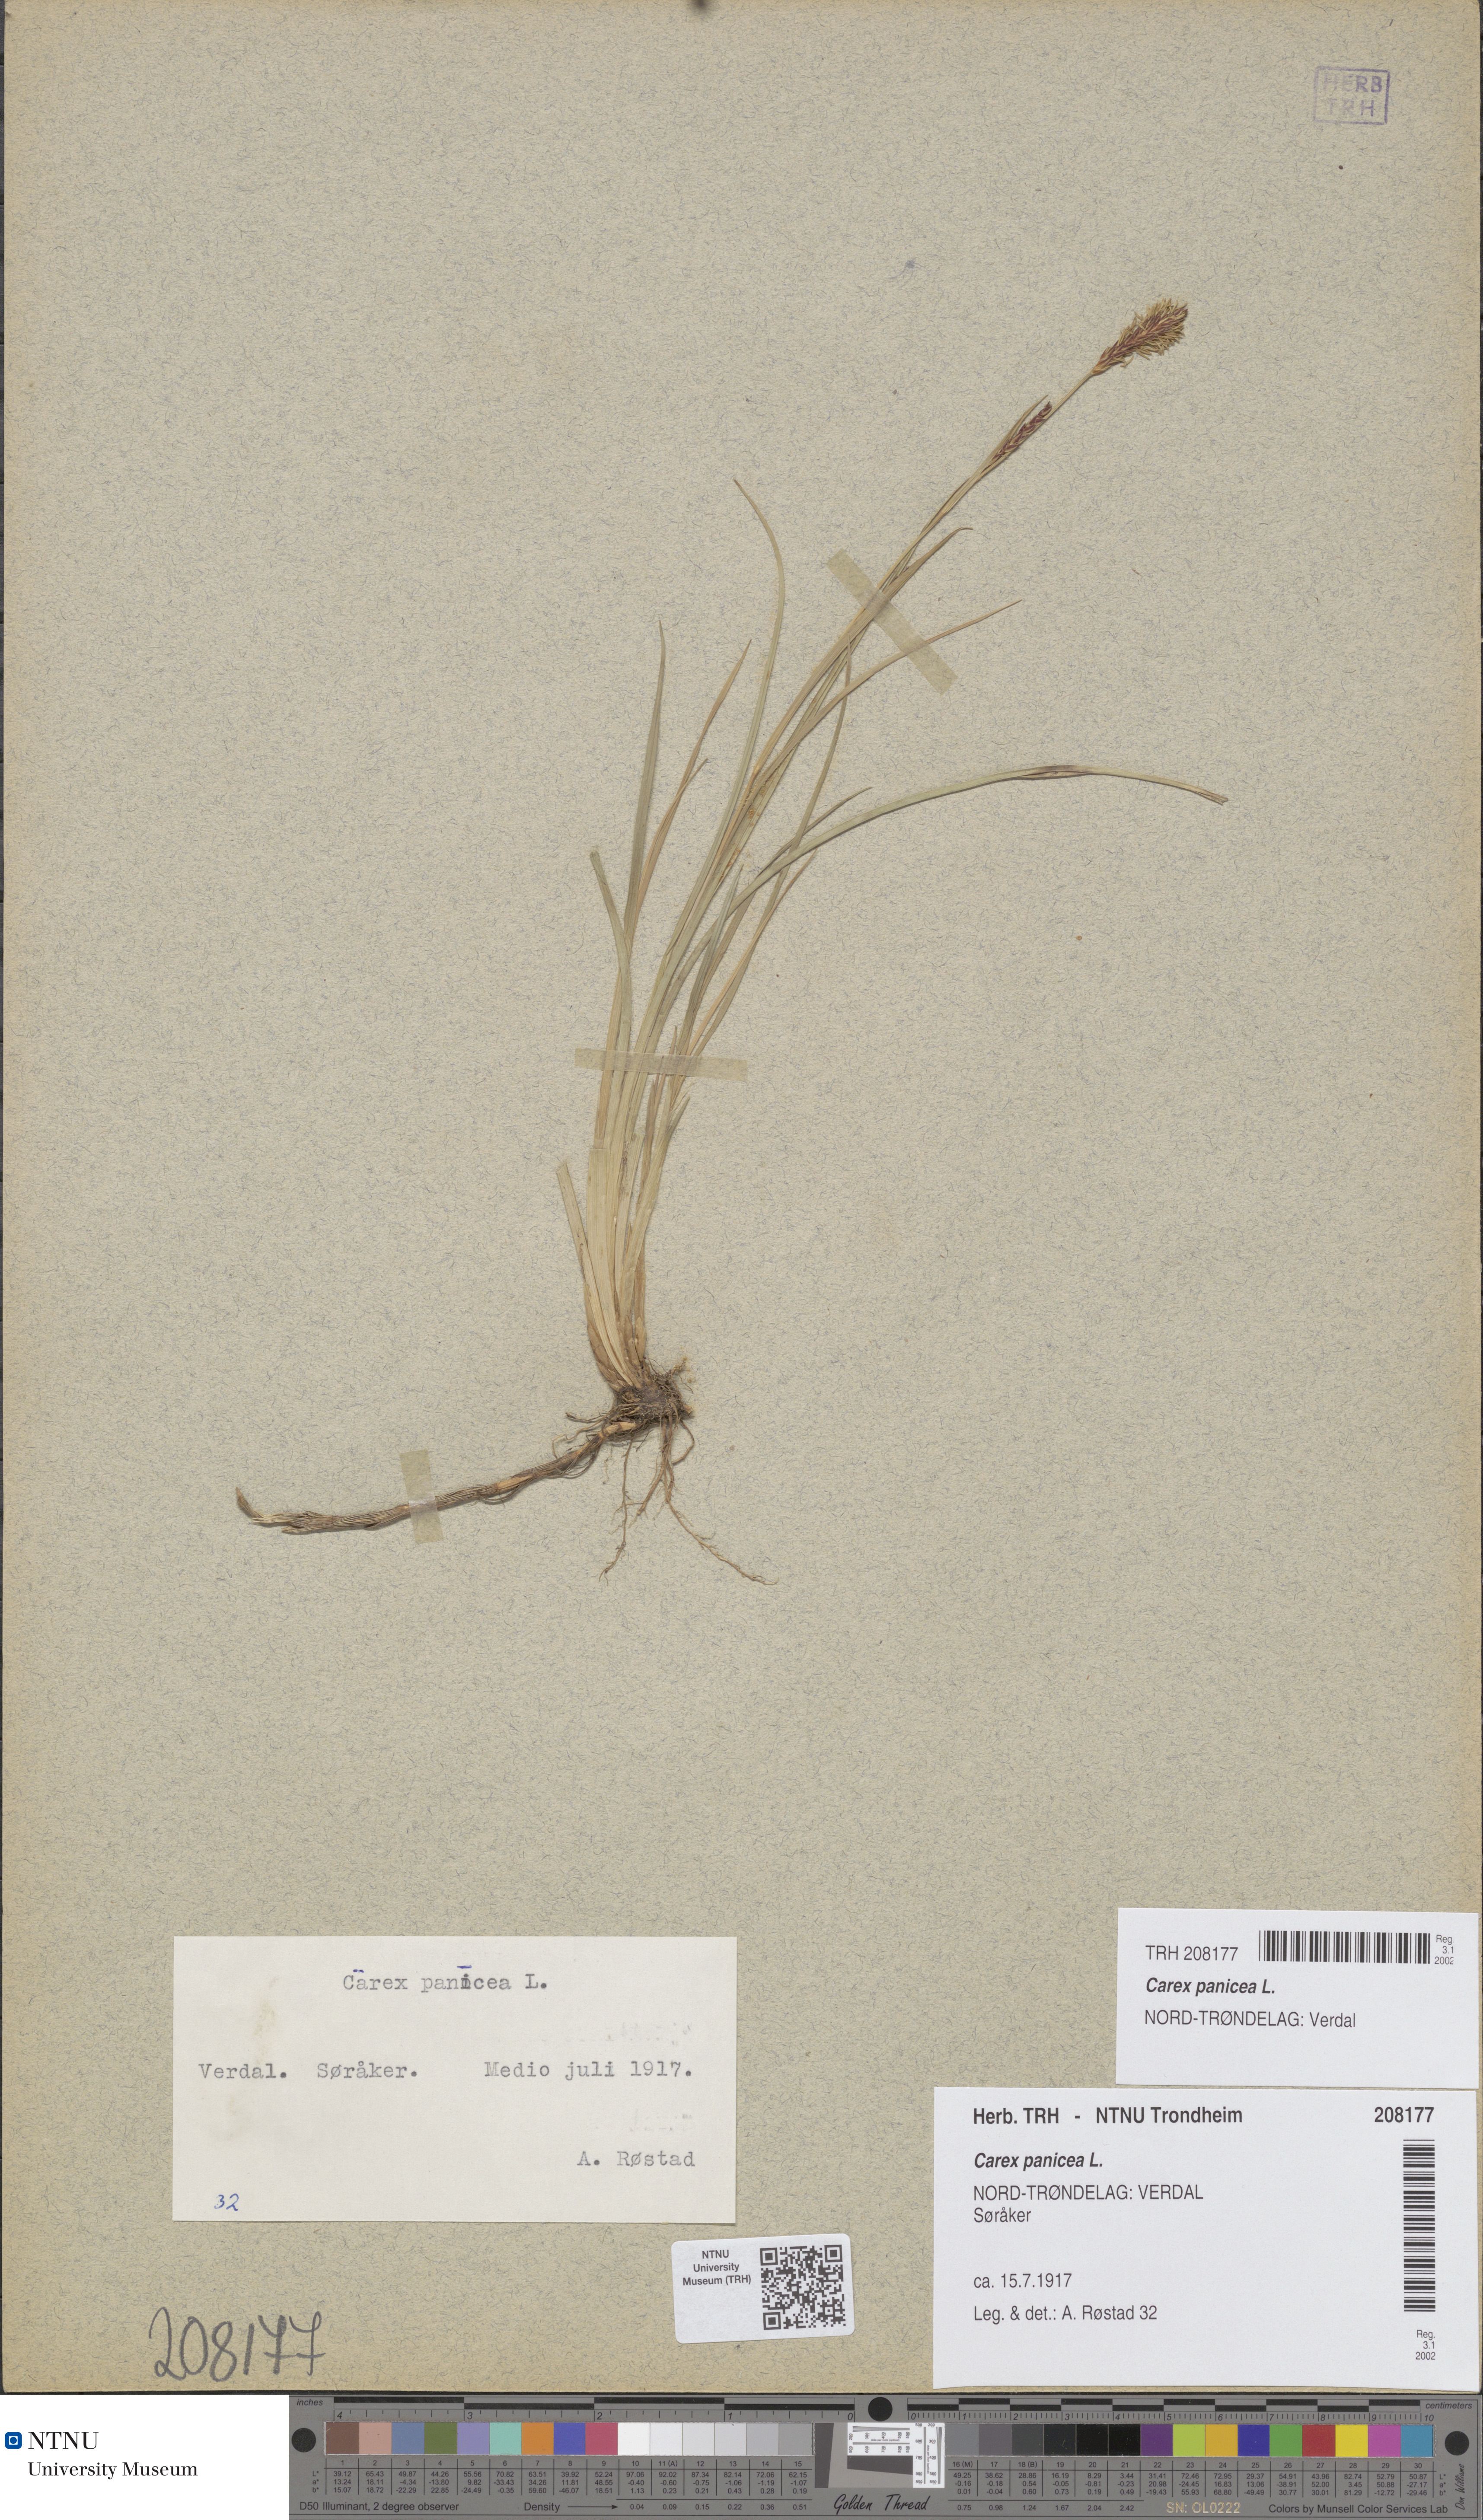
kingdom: Plantae
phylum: Tracheophyta
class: Liliopsida
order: Poales
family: Cyperaceae
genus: Carex
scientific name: Carex panicea
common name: Carnation sedge
